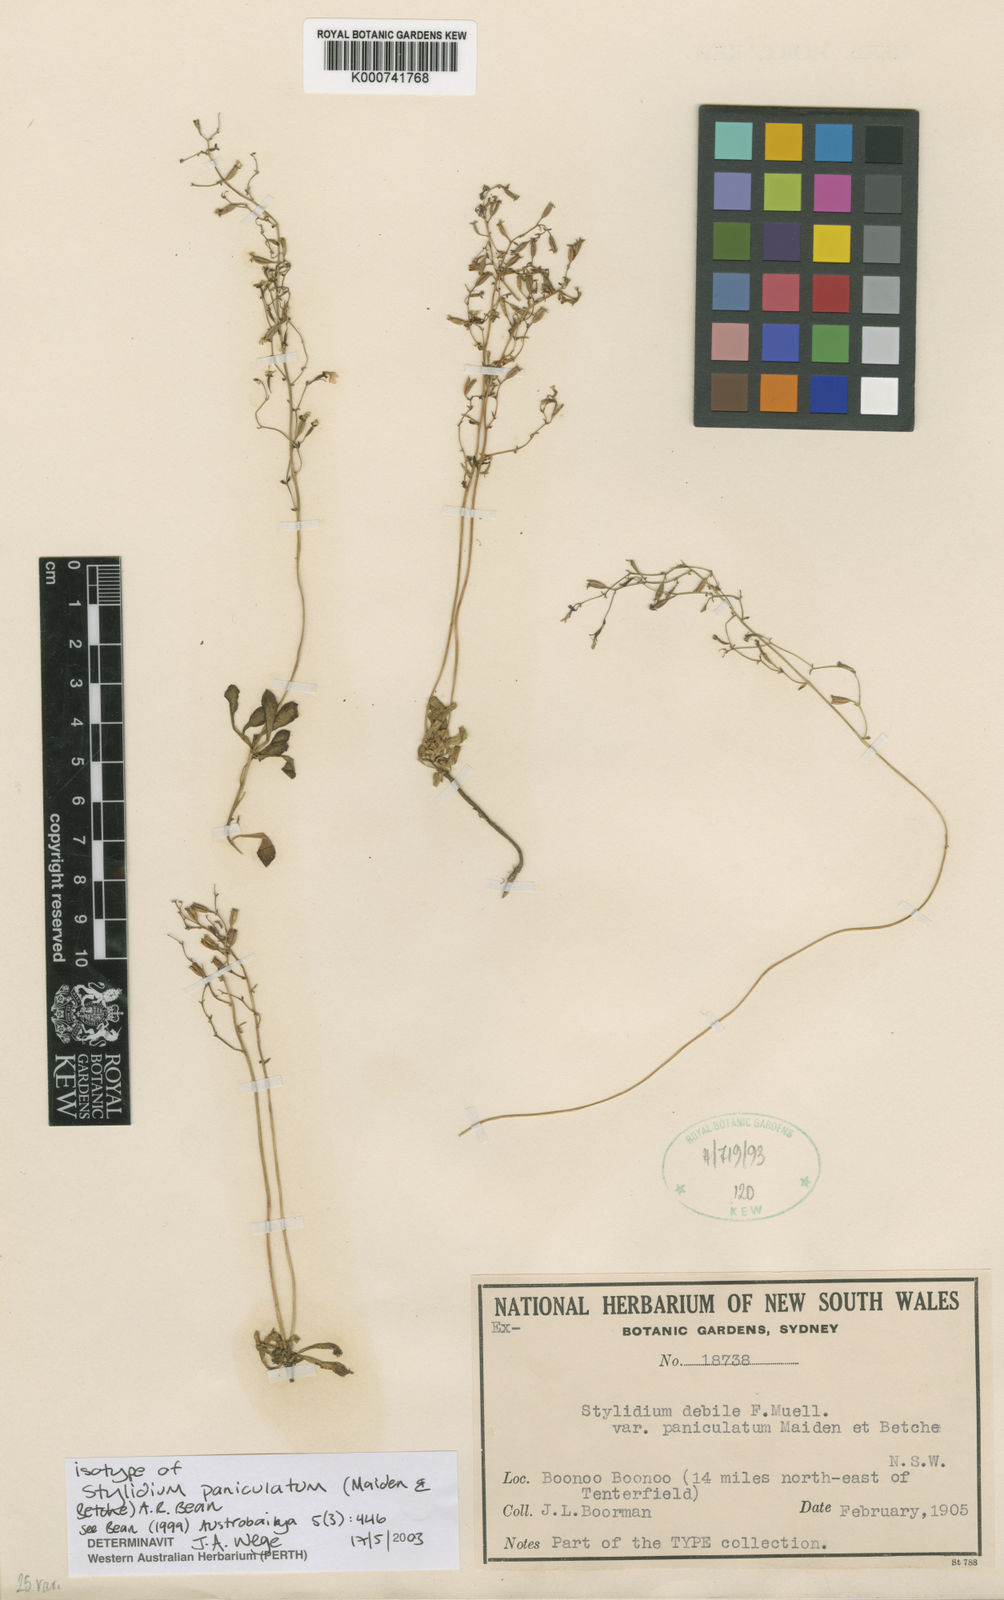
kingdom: Plantae
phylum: Tracheophyta
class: Magnoliopsida
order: Asterales
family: Stylidiaceae
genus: Stylidium
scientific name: Stylidium paniculatum
